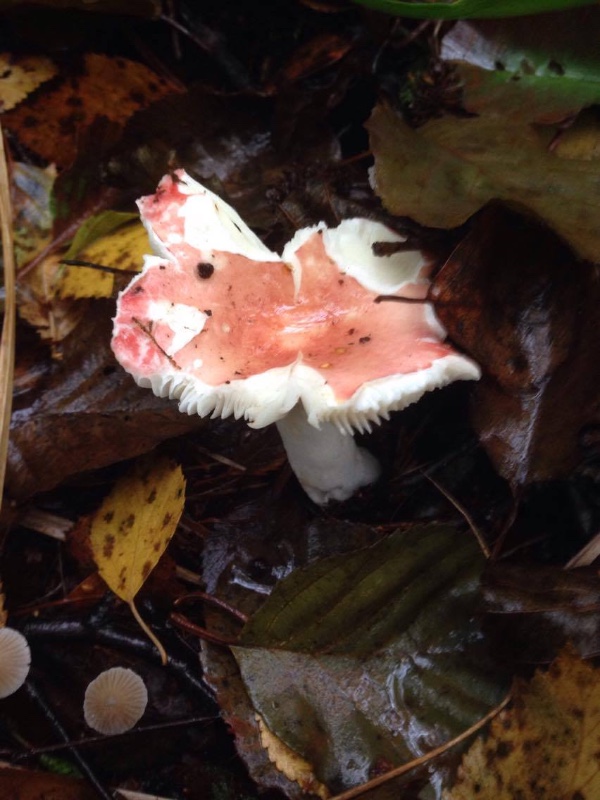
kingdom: Fungi
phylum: Basidiomycota
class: Agaricomycetes
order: Russulales
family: Russulaceae
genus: Russula
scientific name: Russula betularum
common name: bleg gift-skørhat
